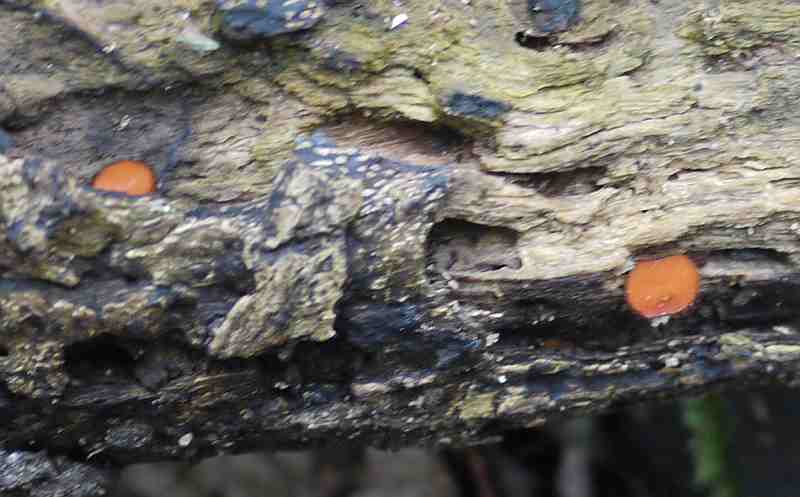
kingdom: Fungi
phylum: Ascomycota
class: Pezizomycetes
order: Pezizales
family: Pyronemataceae
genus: Scutellinia
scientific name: Scutellinia scutellata
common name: frynset skjoldbæger
